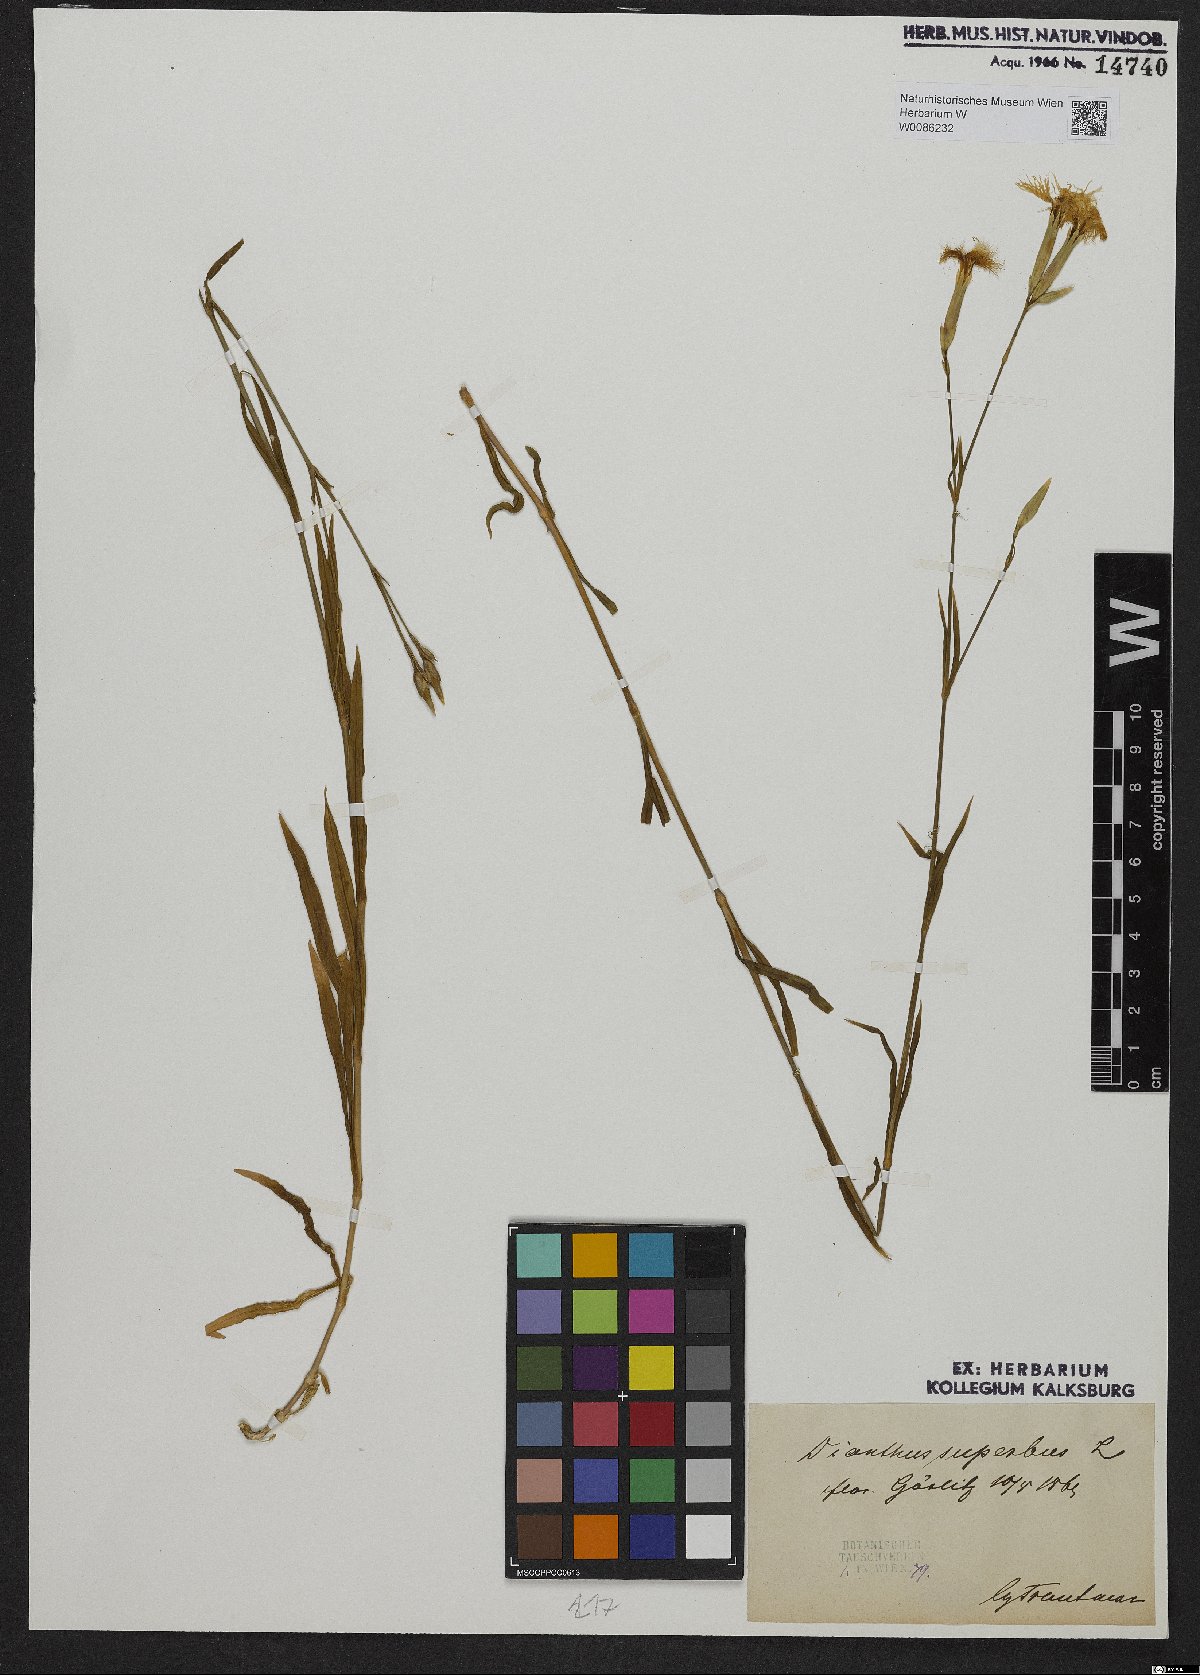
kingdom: Plantae
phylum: Tracheophyta
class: Magnoliopsida
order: Caryophyllales
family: Caryophyllaceae
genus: Dianthus
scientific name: Dianthus superbus
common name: Fringed pink
